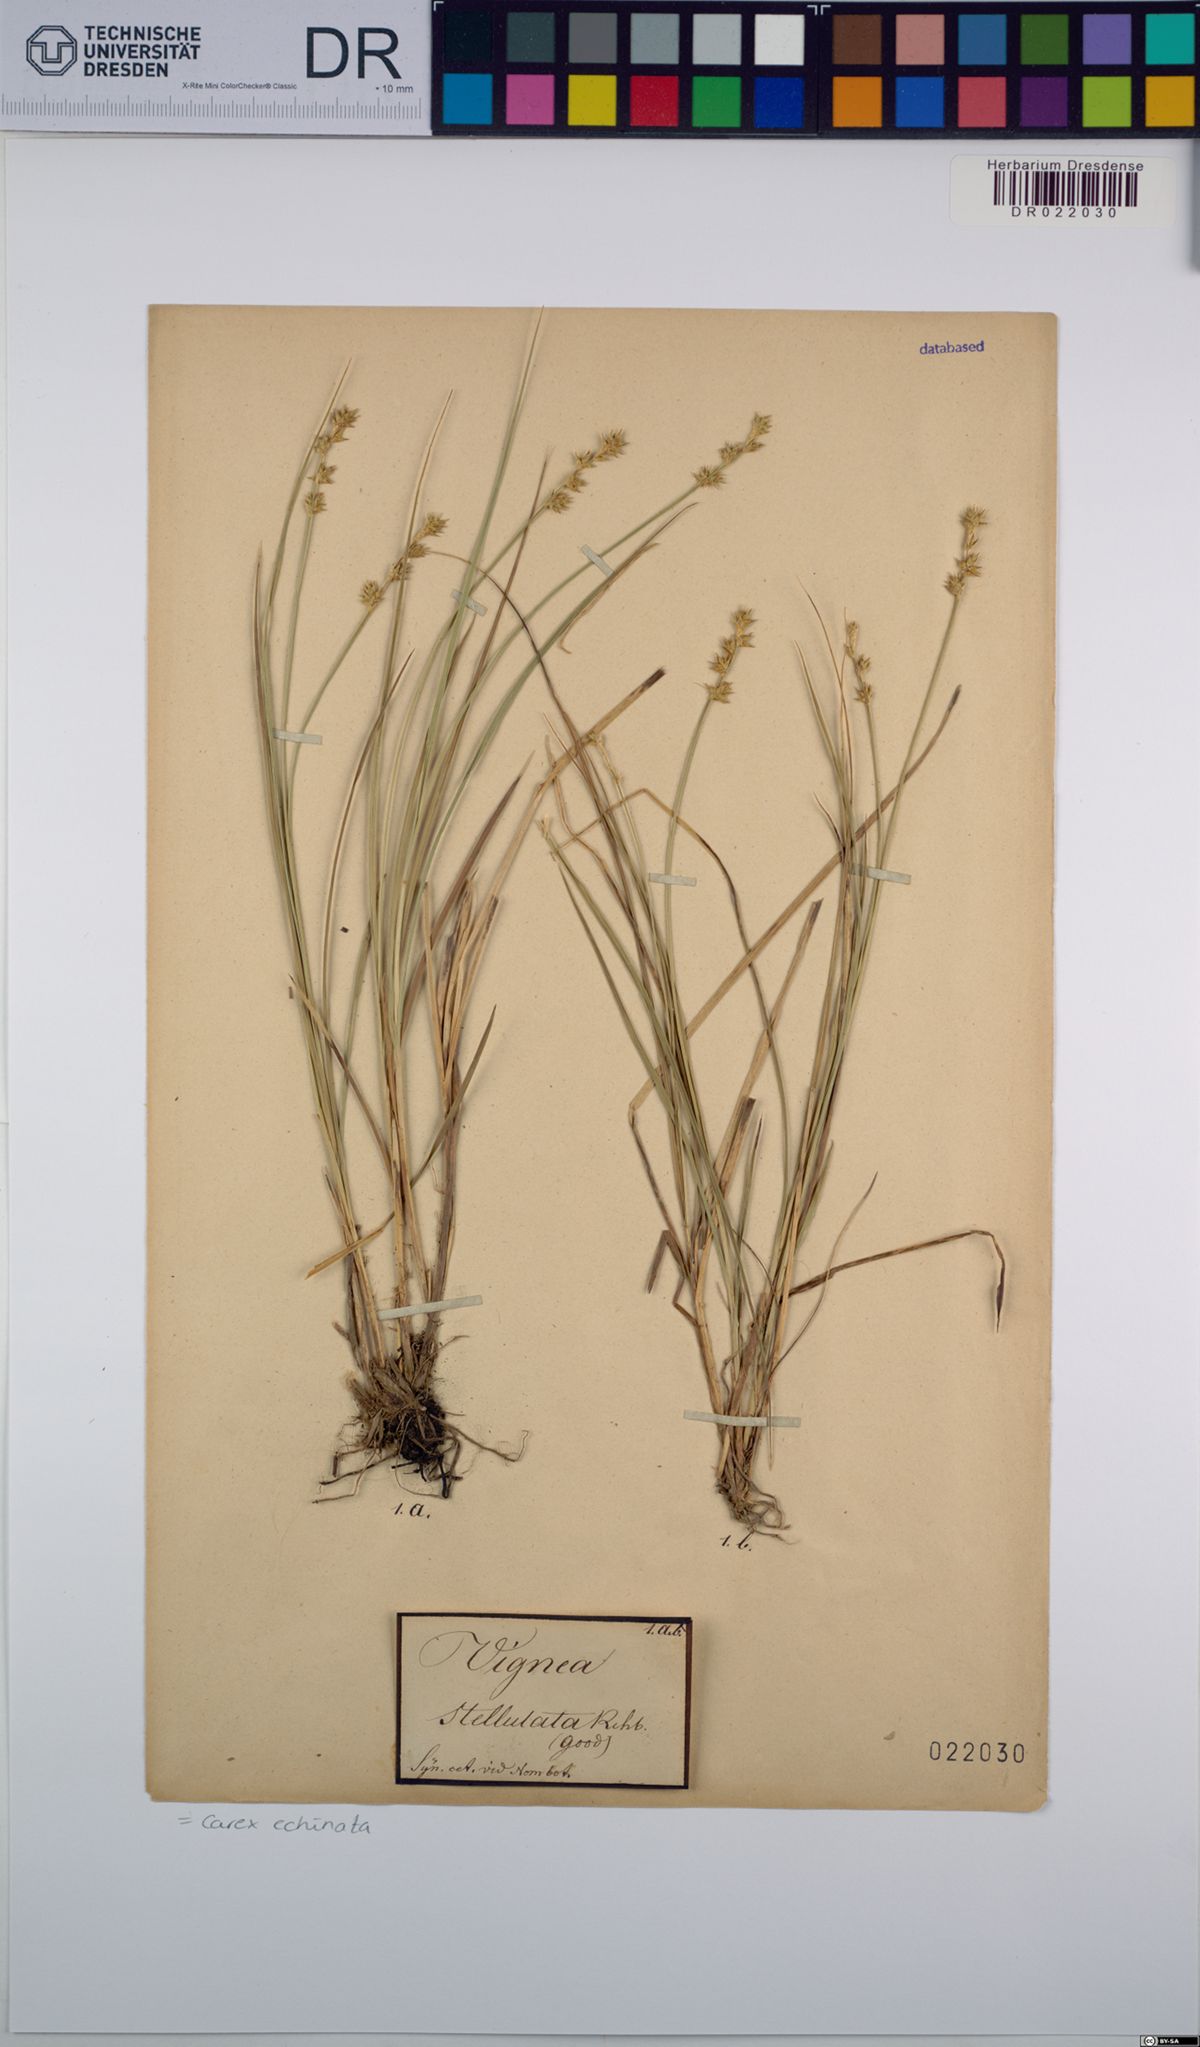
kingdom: Plantae
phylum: Tracheophyta
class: Liliopsida
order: Poales
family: Cyperaceae
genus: Carex
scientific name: Carex echinata
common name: Star sedge
